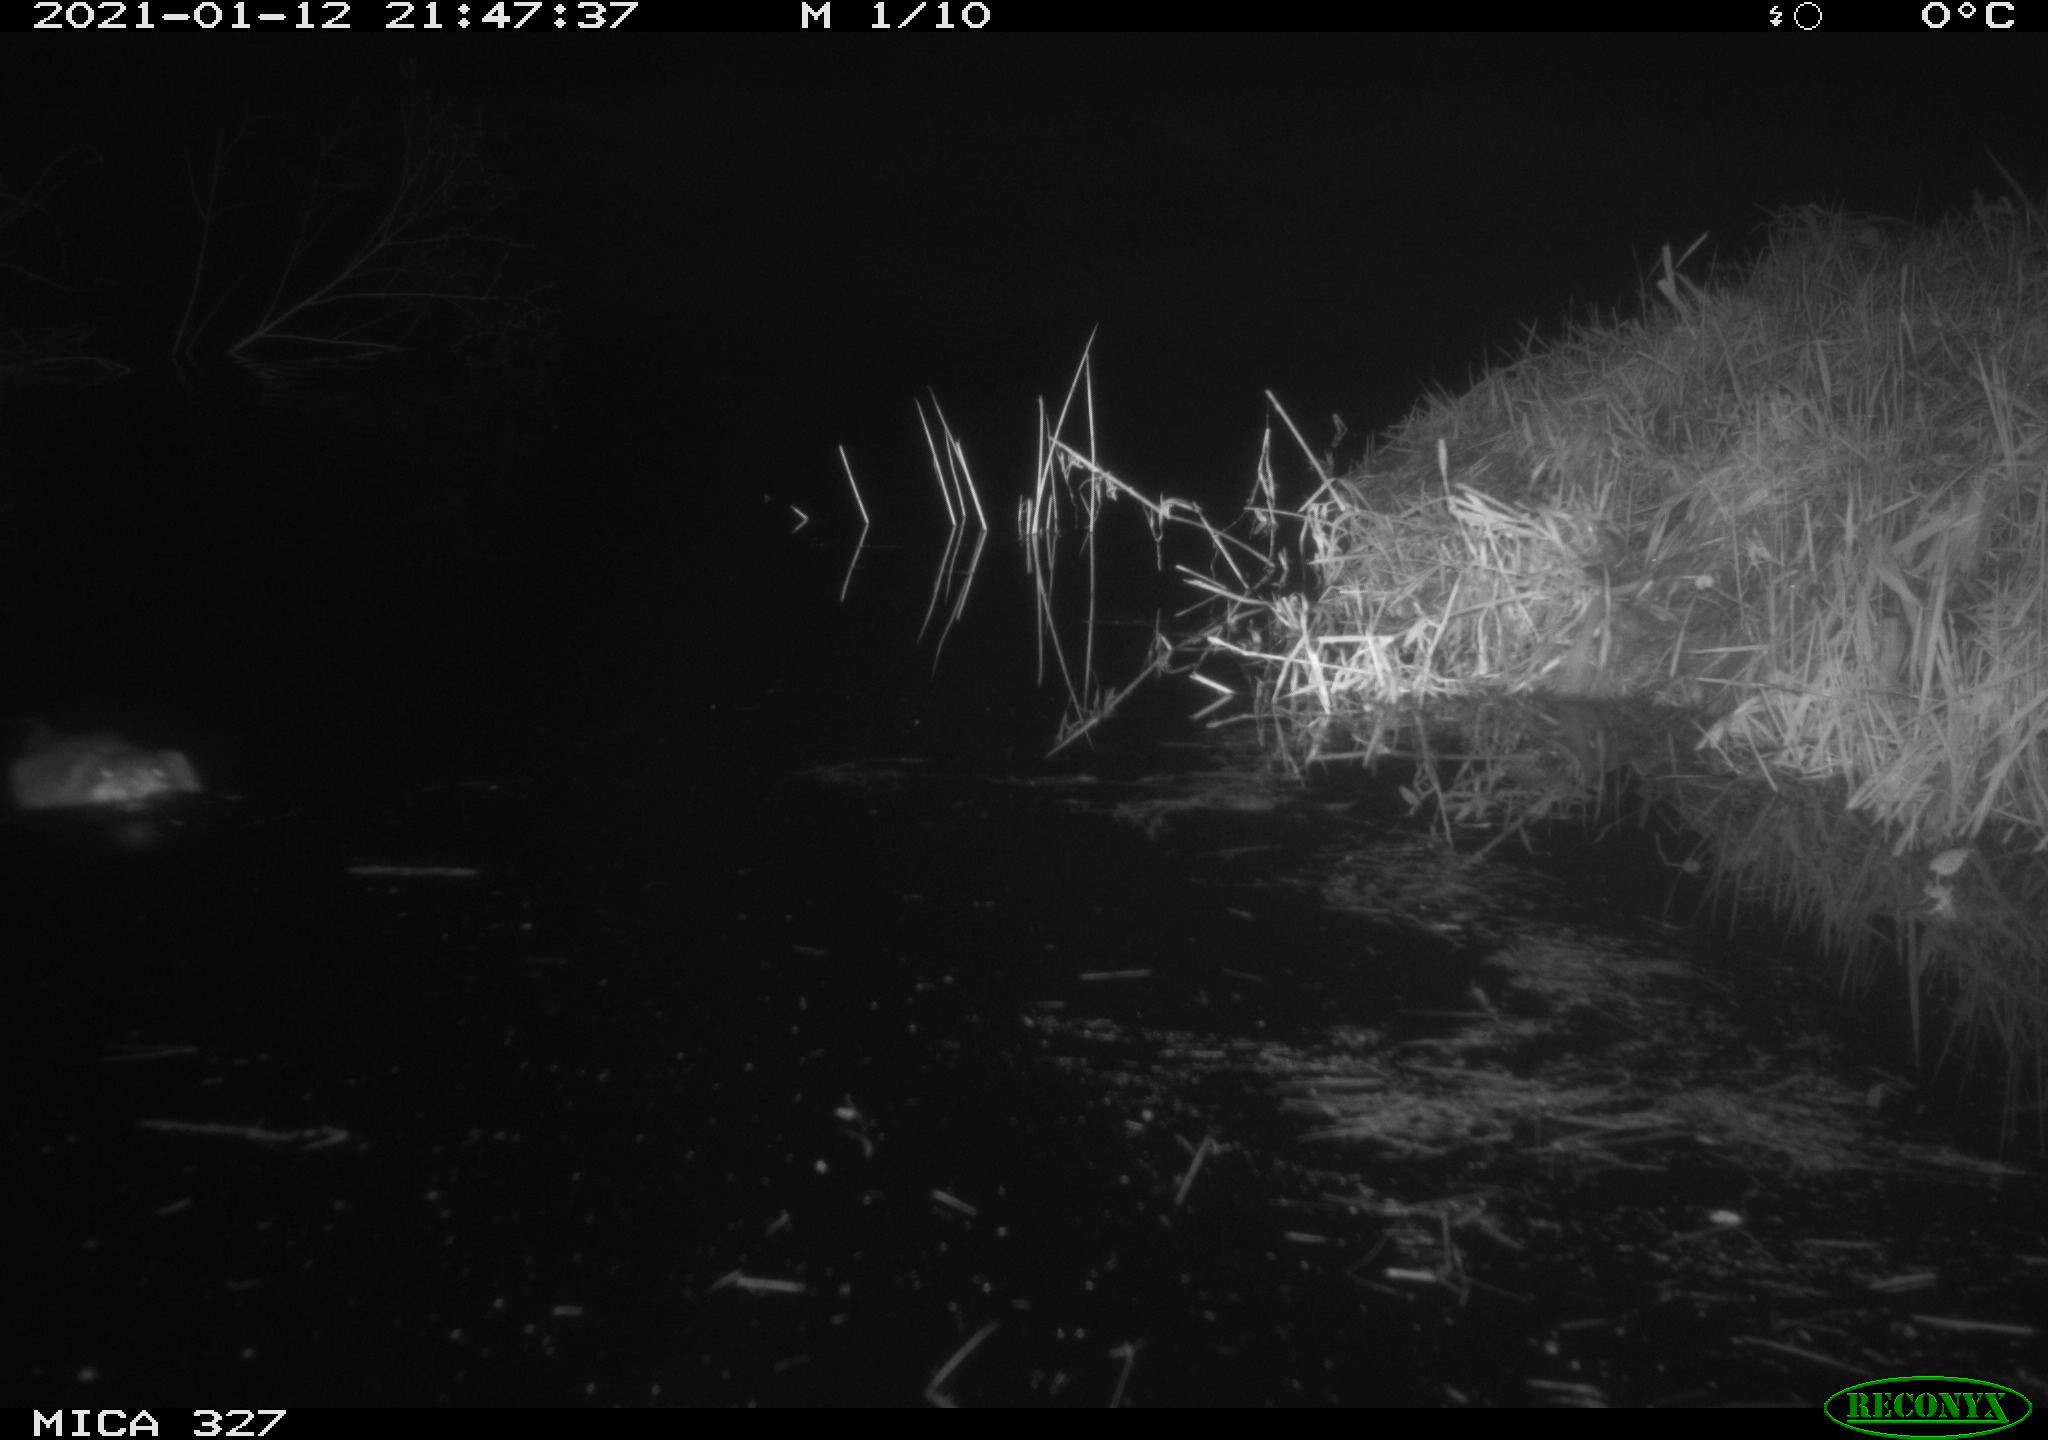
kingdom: Animalia
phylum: Chordata
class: Mammalia
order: Rodentia
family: Cricetidae
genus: Ondatra
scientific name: Ondatra zibethicus
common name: Muskrat
